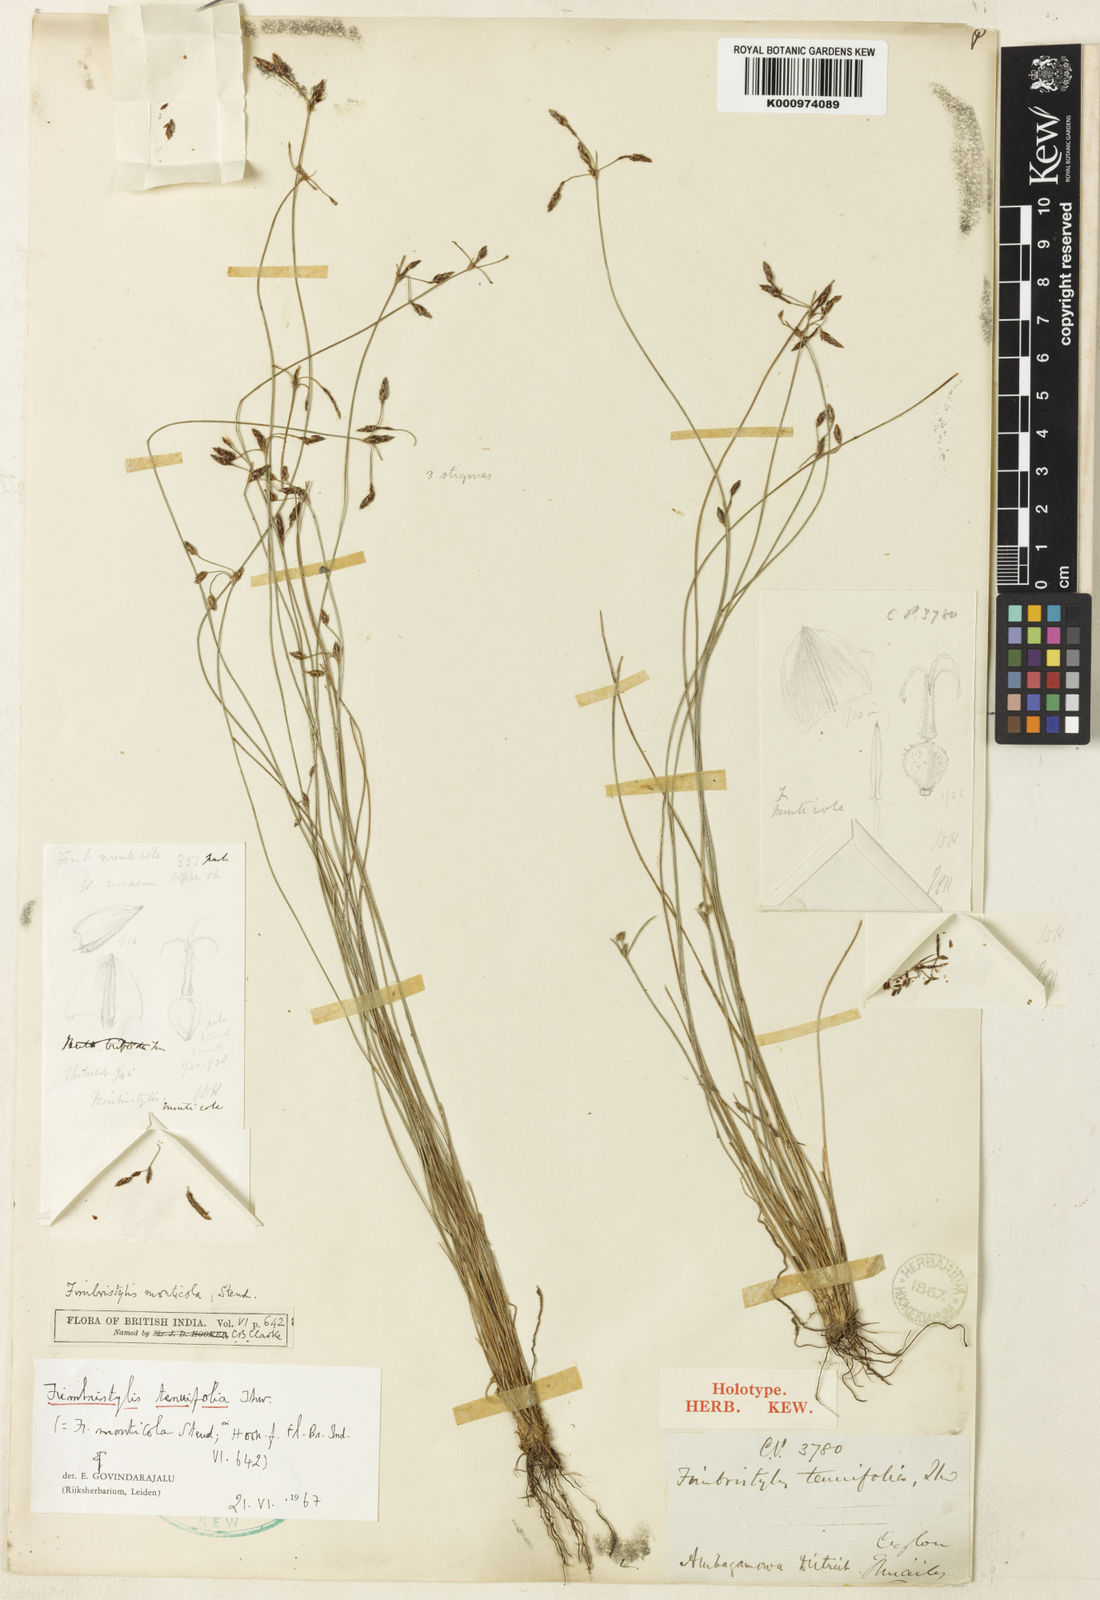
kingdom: Plantae
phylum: Tracheophyta
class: Liliopsida
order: Poales
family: Cyperaceae
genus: Fimbristylis
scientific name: Fimbristylis monticola
